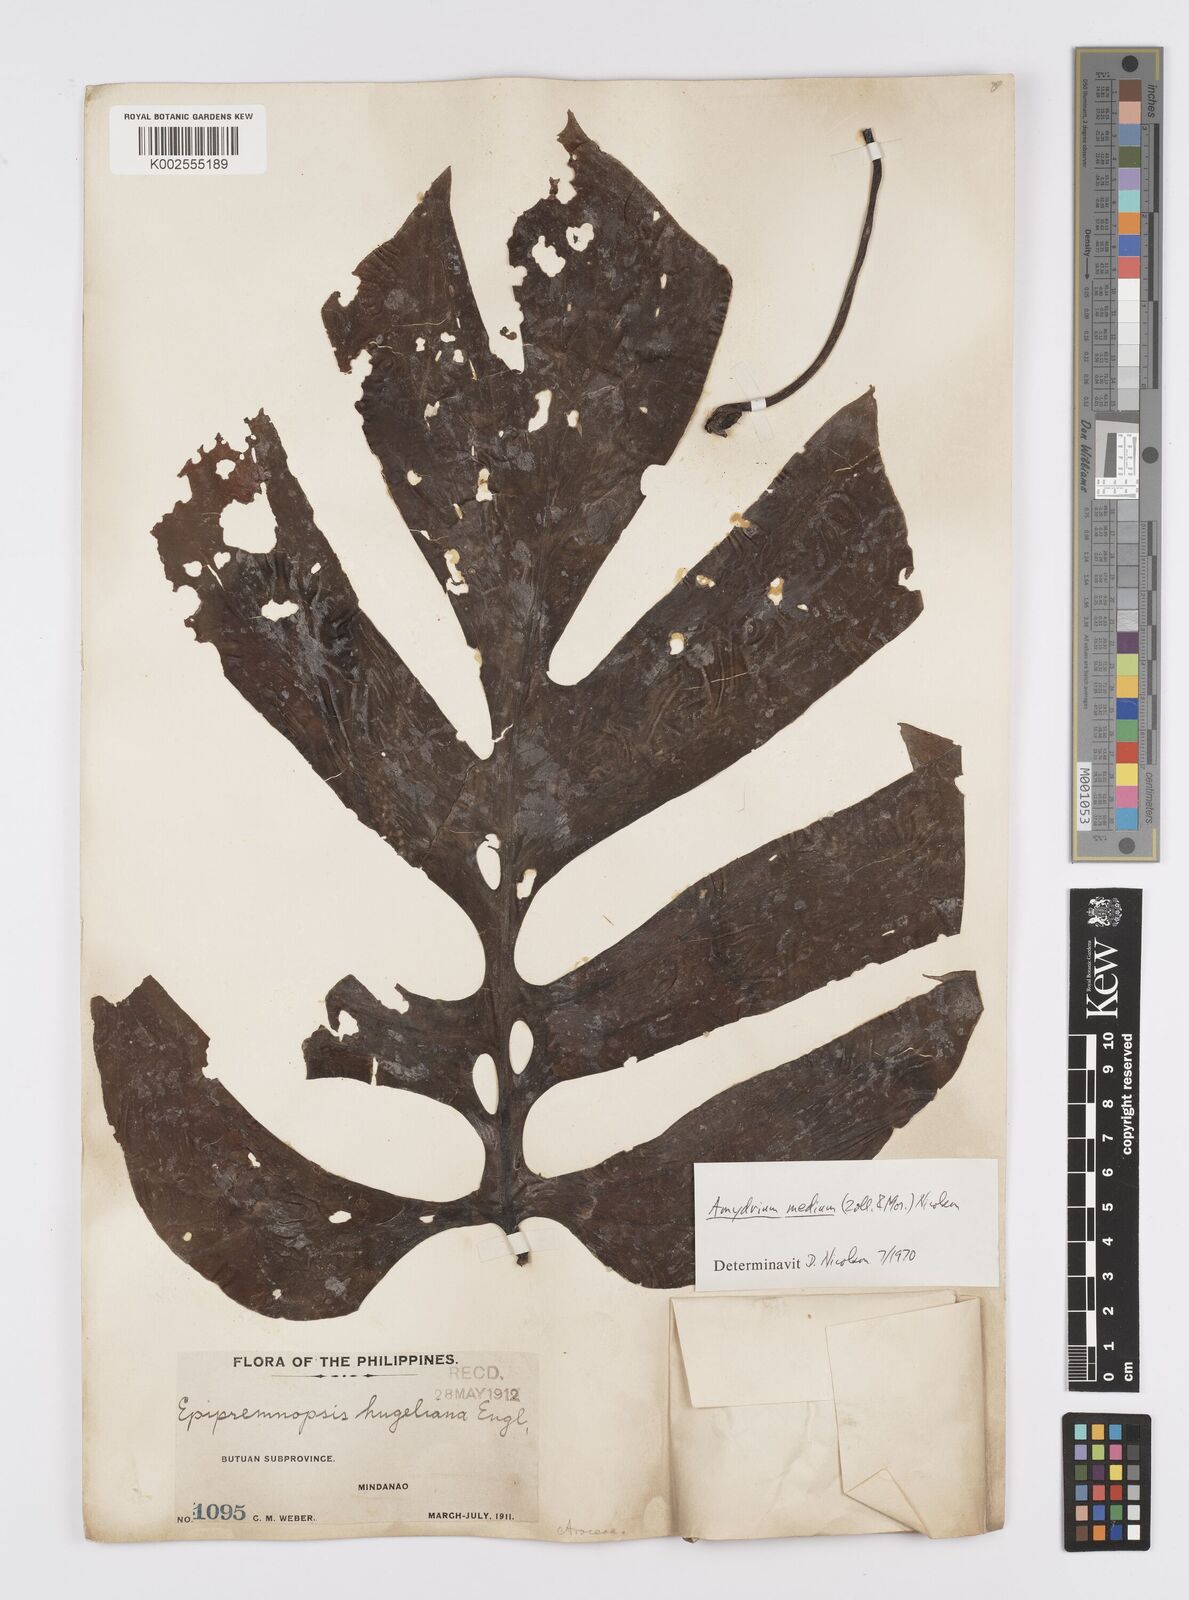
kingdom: Plantae
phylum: Tracheophyta
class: Liliopsida
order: Alismatales
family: Araceae
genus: Amydrium
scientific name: Amydrium medium
